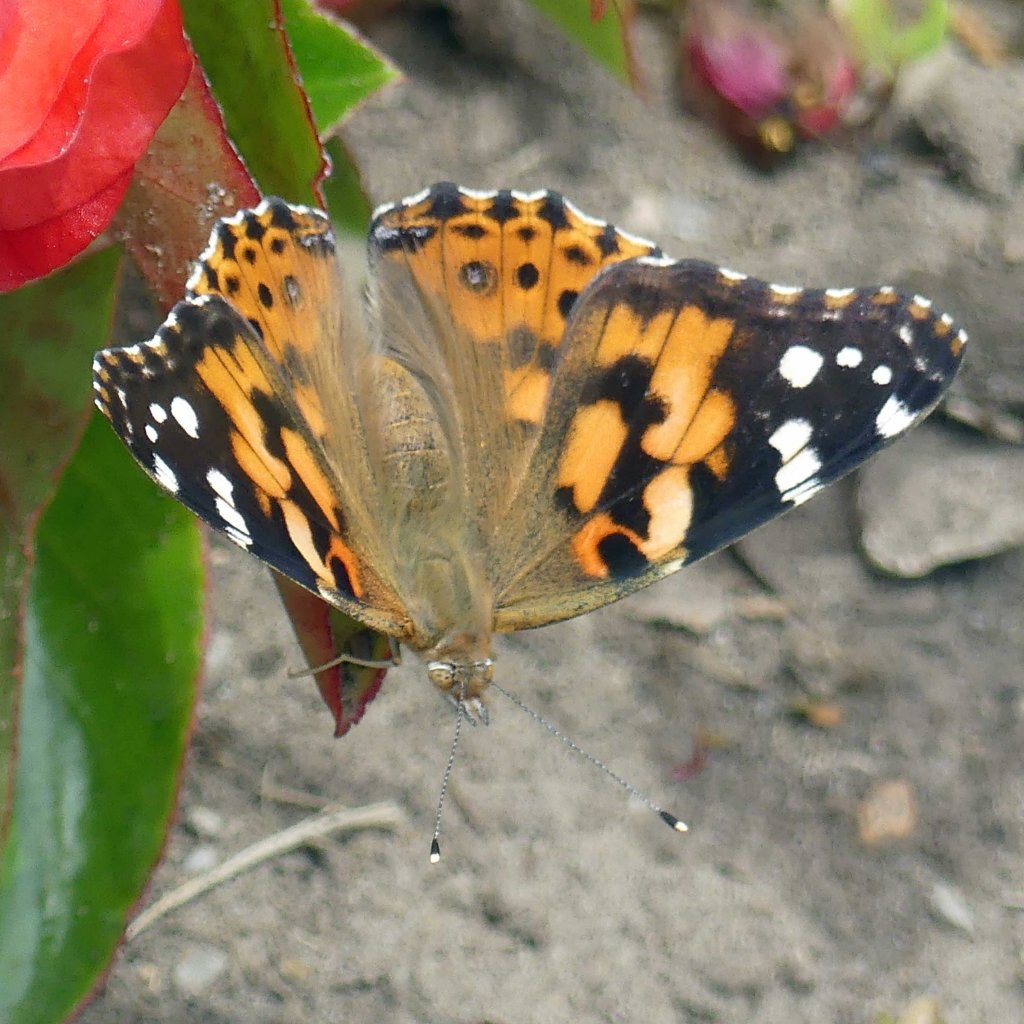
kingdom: Animalia
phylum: Arthropoda
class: Insecta
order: Lepidoptera
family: Nymphalidae
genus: Vanessa
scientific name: Vanessa cardui
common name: Painted Lady
